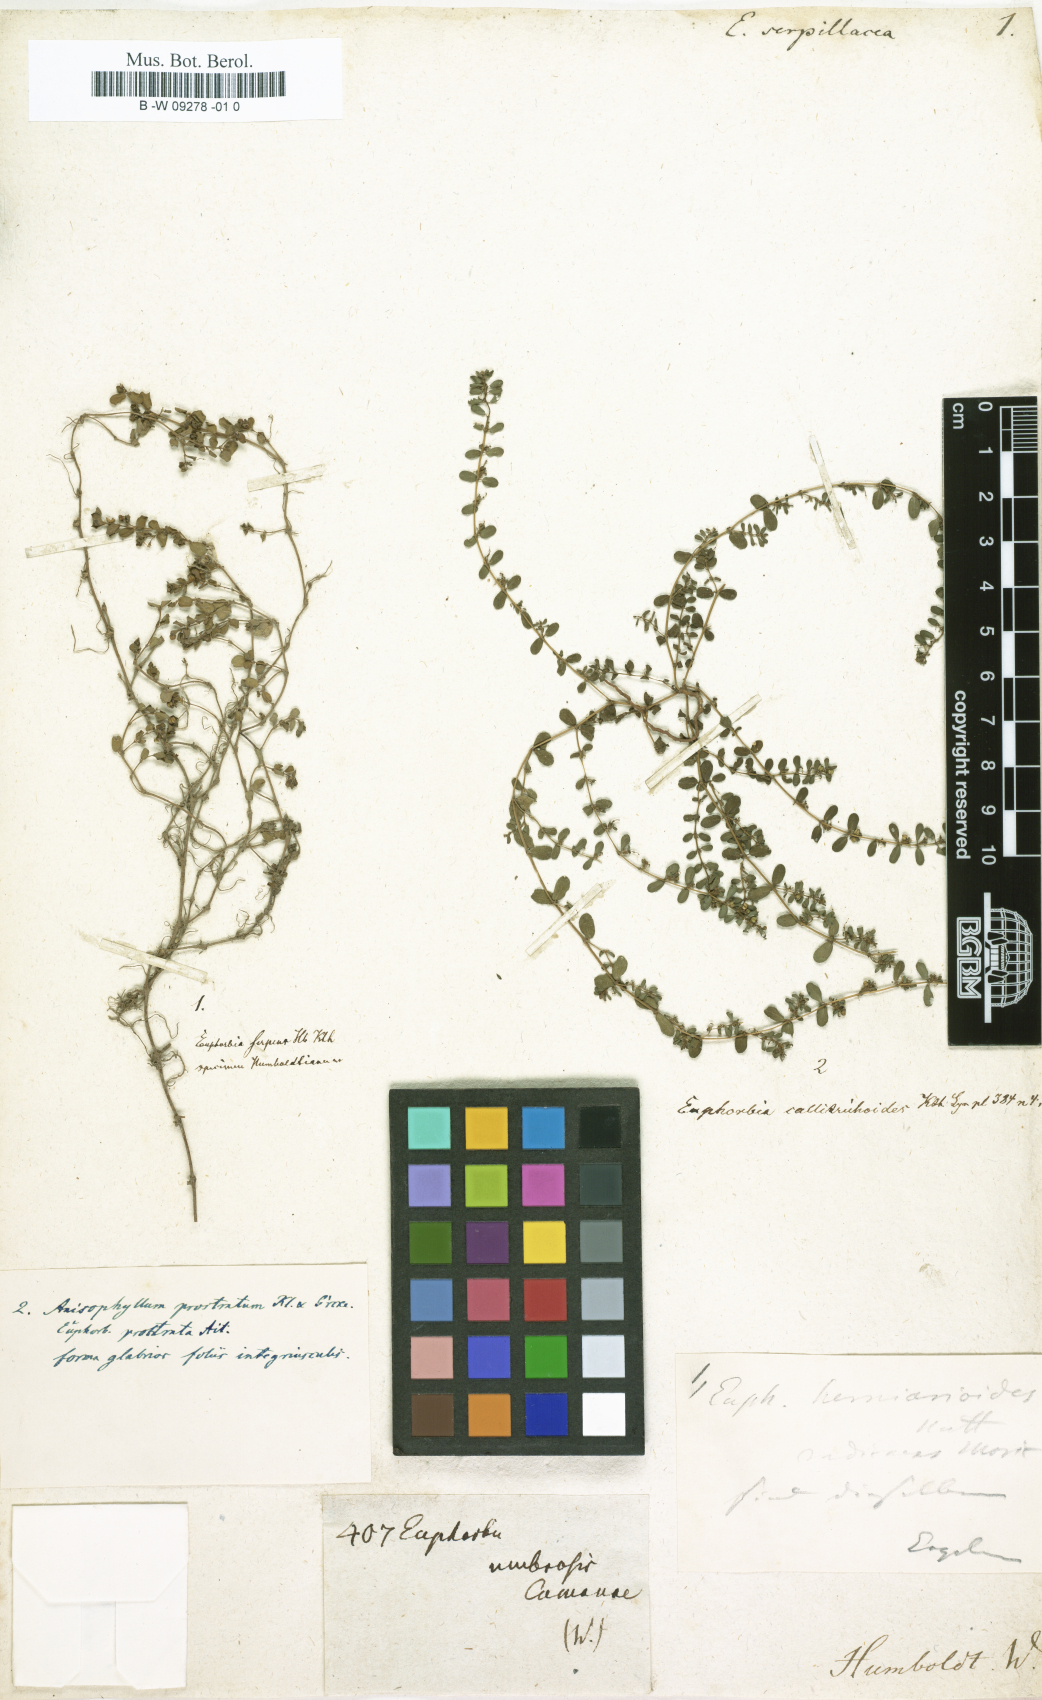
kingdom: Plantae
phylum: Tracheophyta
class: Magnoliopsida
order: Malpighiales
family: Euphorbiaceae
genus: Euphorbia
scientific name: Euphorbia
